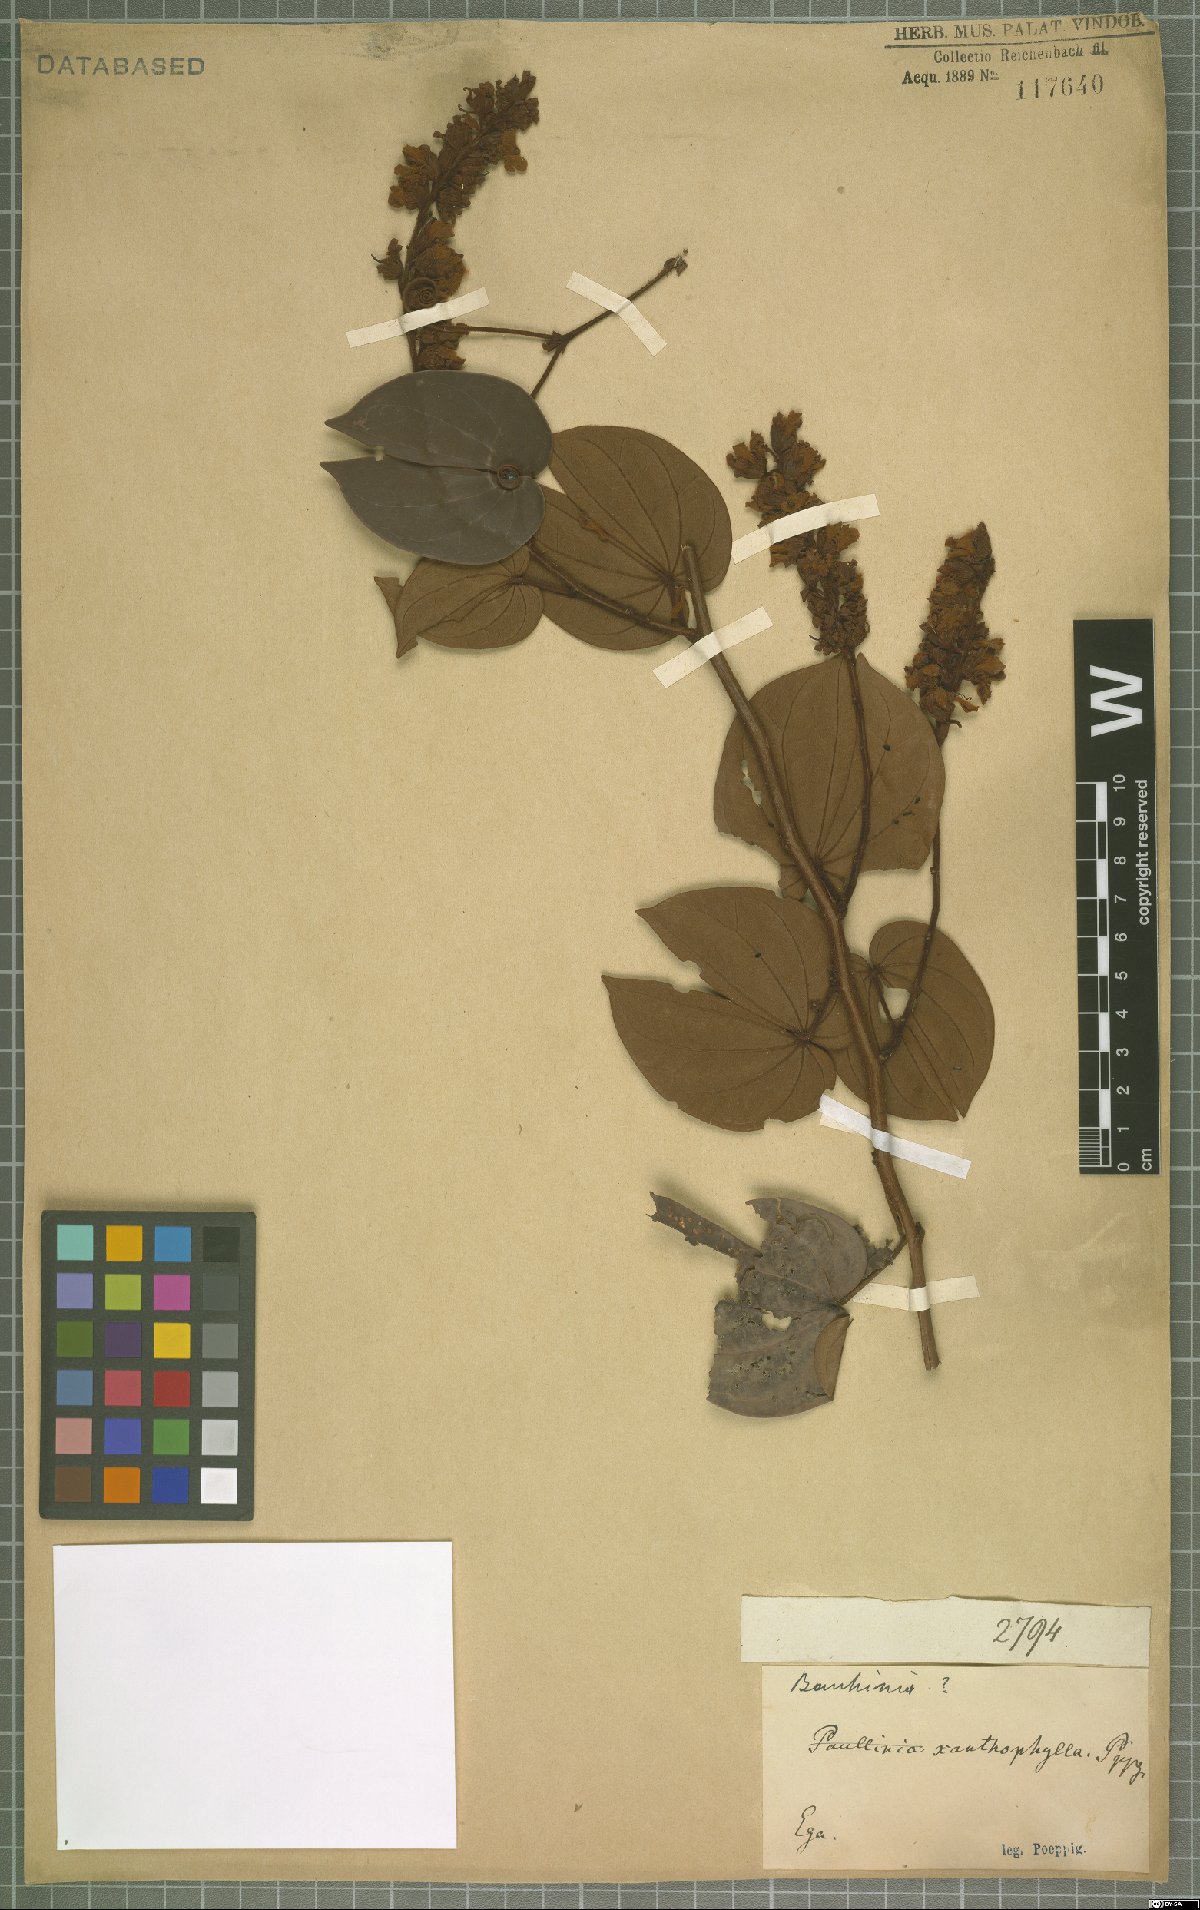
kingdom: Plantae
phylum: Tracheophyta
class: Magnoliopsida
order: Fabales
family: Fabaceae
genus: Bauhinia
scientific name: Bauhinia
